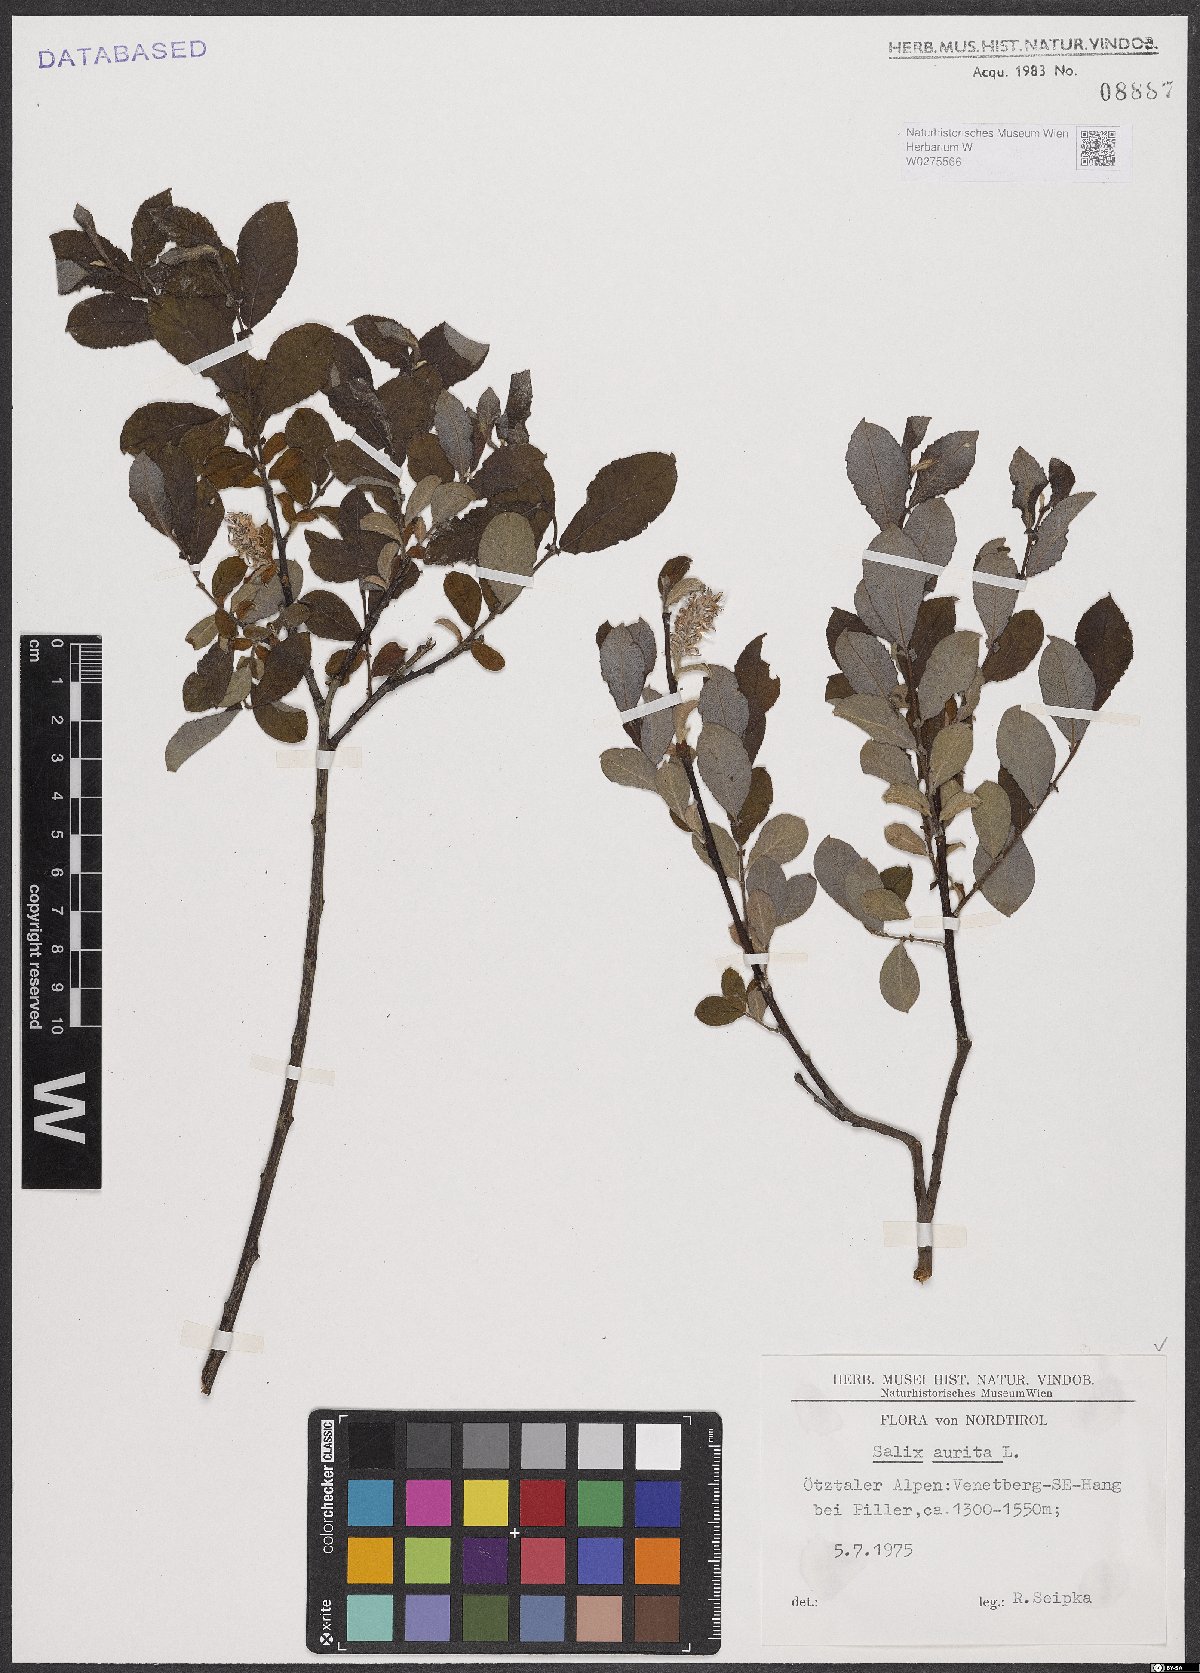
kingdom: Plantae
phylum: Tracheophyta
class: Magnoliopsida
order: Malpighiales
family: Salicaceae
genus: Salix
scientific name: Salix aurita
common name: Eared willow
